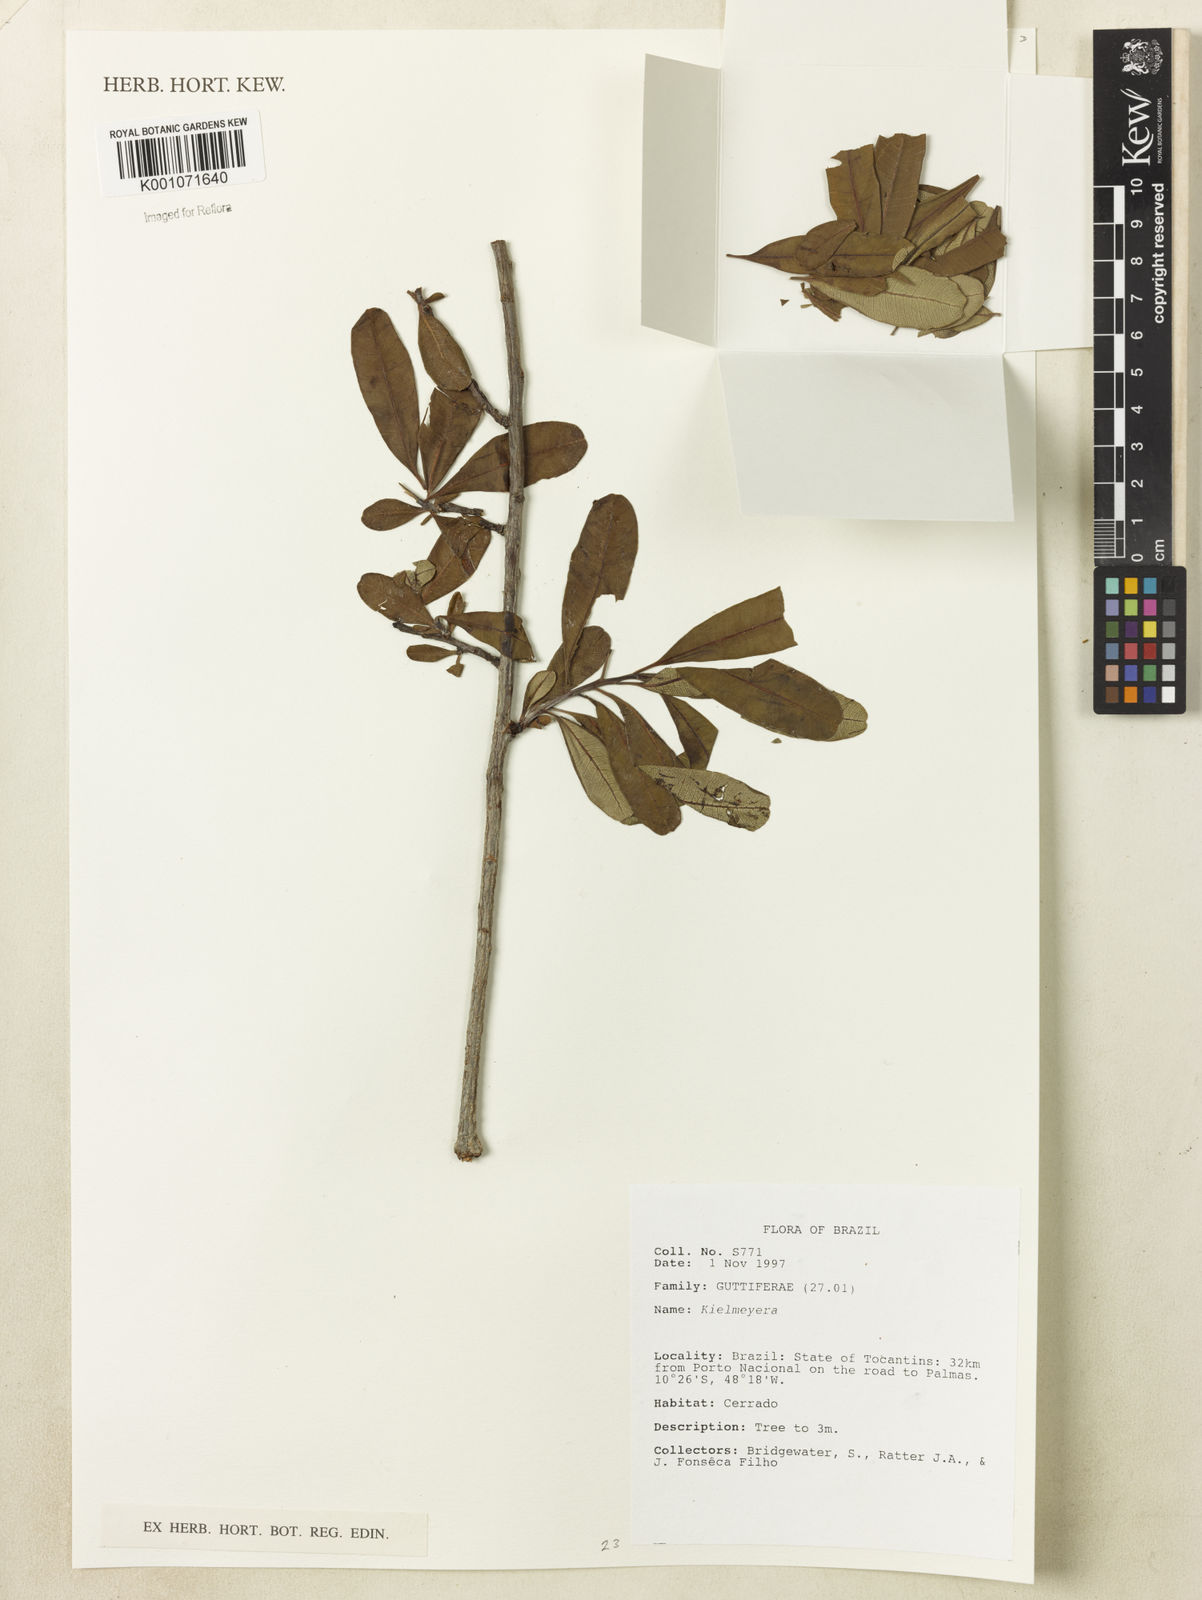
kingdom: Plantae
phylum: Tracheophyta
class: Magnoliopsida
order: Malpighiales
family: Calophyllaceae
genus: Kielmeyera
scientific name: Kielmeyera
